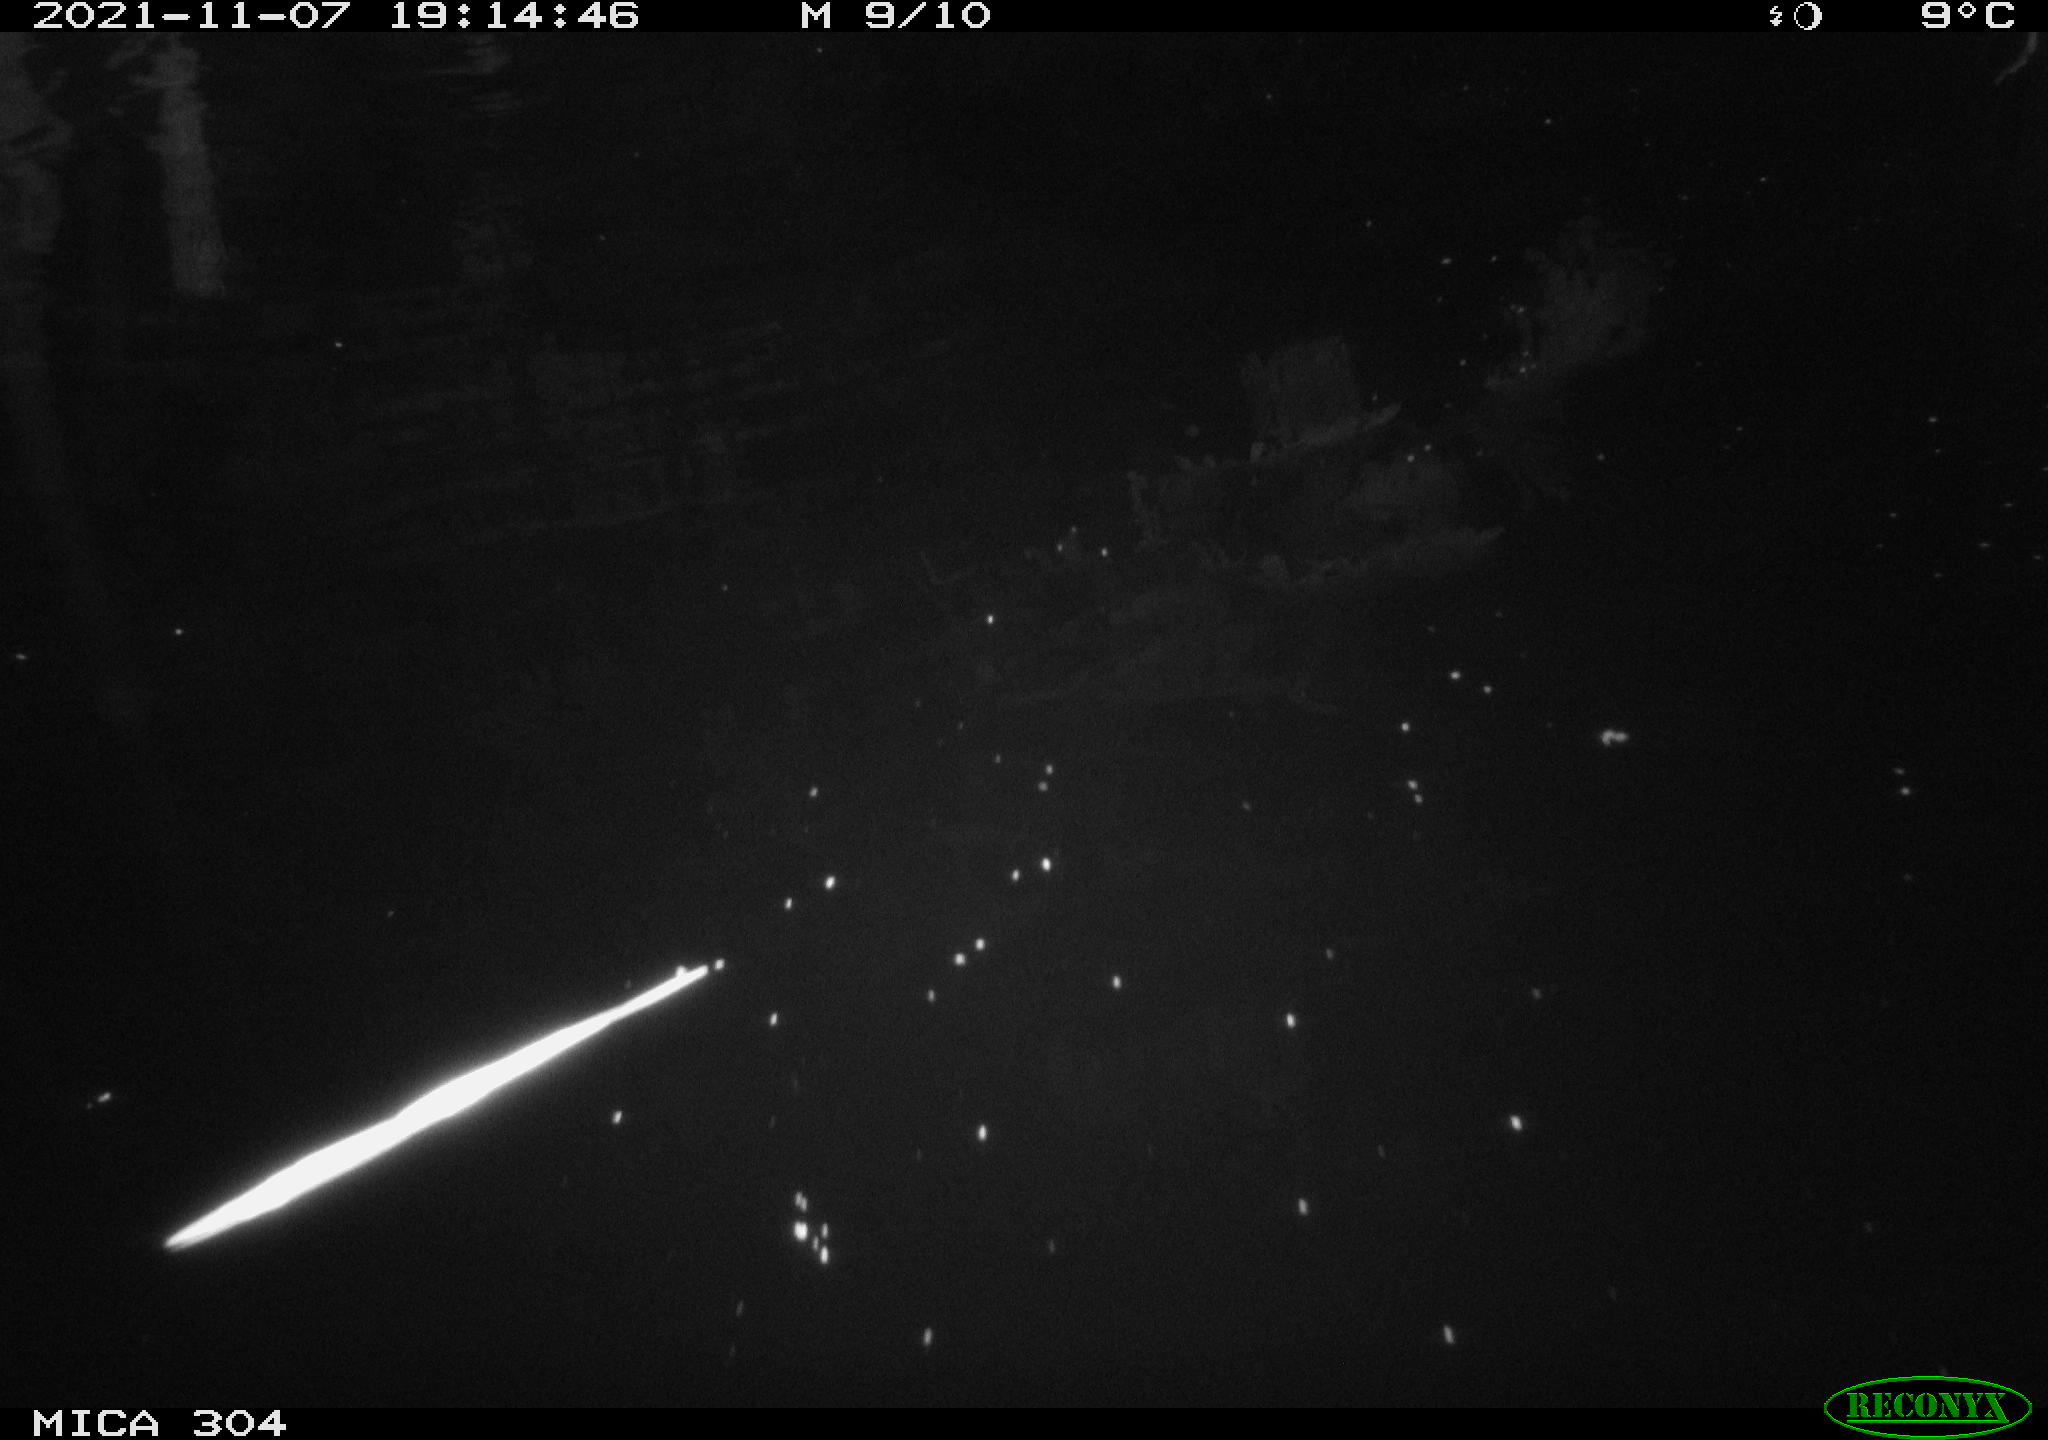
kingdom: Animalia
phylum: Chordata
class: Mammalia
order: Rodentia
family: Muridae
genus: Rattus
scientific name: Rattus norvegicus
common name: Brown rat
